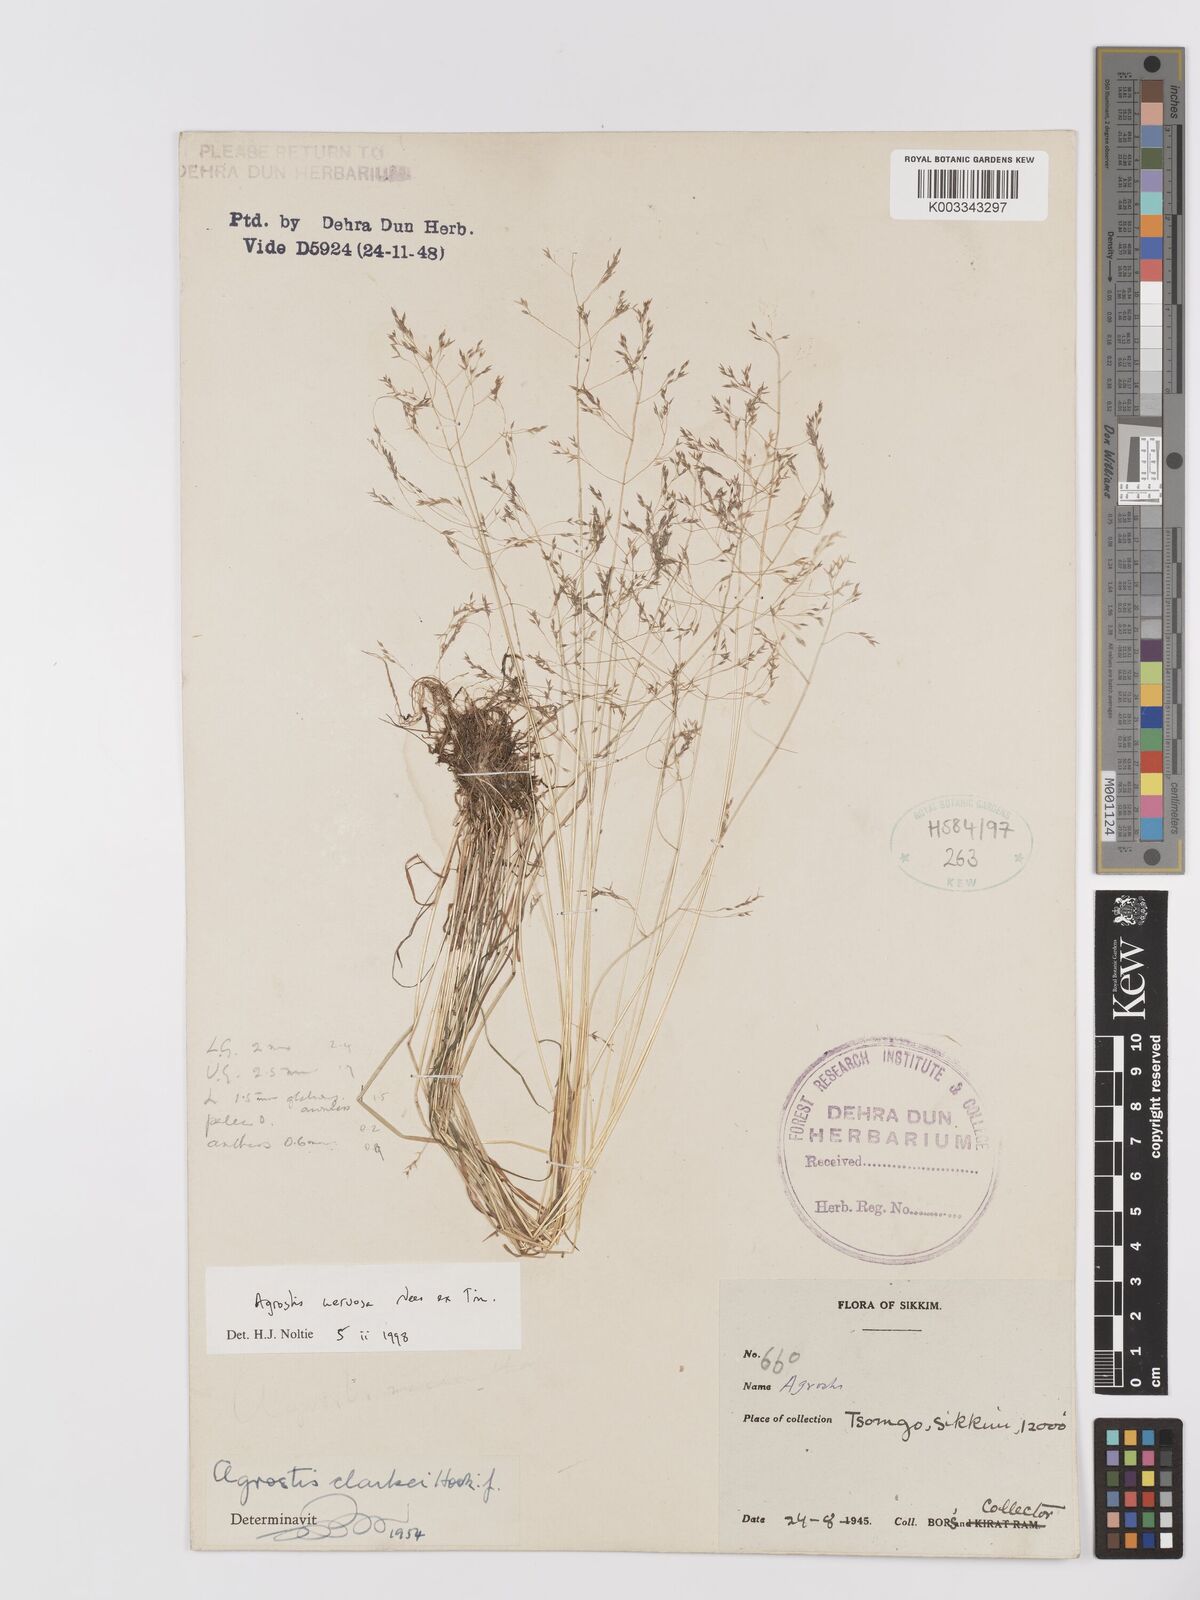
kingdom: Plantae
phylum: Tracheophyta
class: Liliopsida
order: Poales
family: Poaceae
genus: Agrostis
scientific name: Agrostis nervosa
